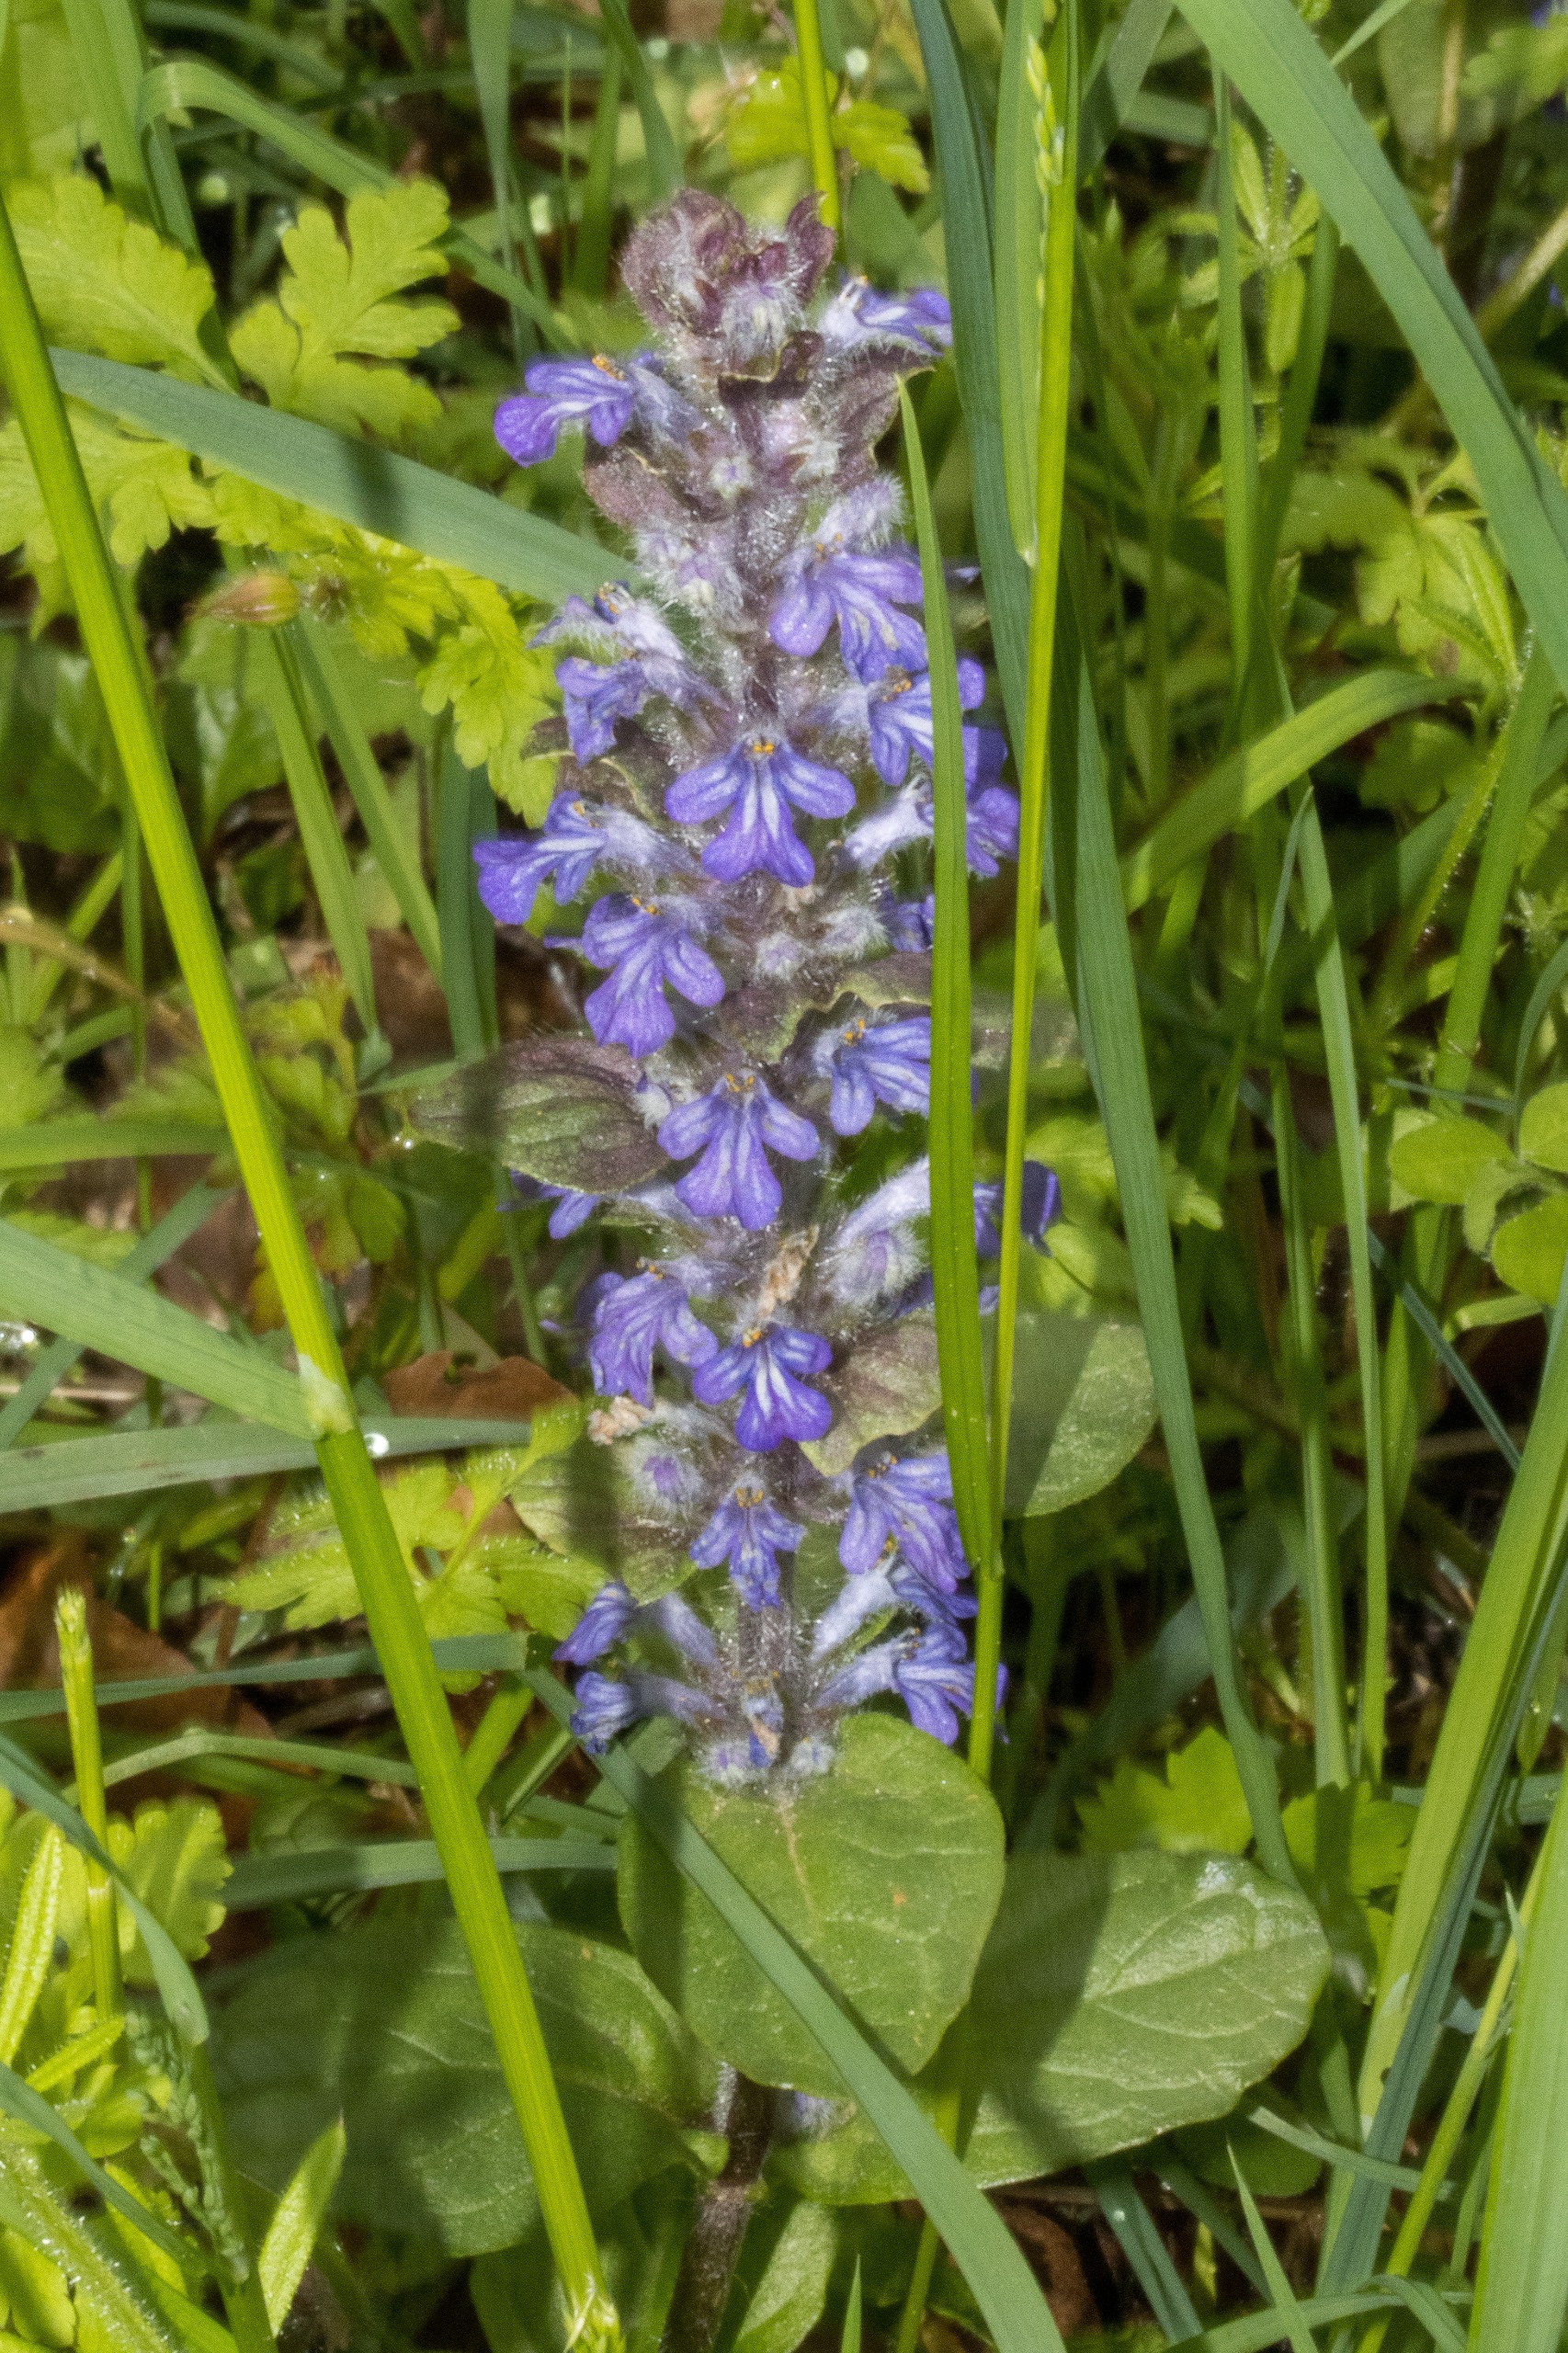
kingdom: Plantae
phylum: Tracheophyta
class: Magnoliopsida
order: Lamiales
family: Lamiaceae
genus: Ajuga
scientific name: Ajuga reptans
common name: Krybende læbeløs
